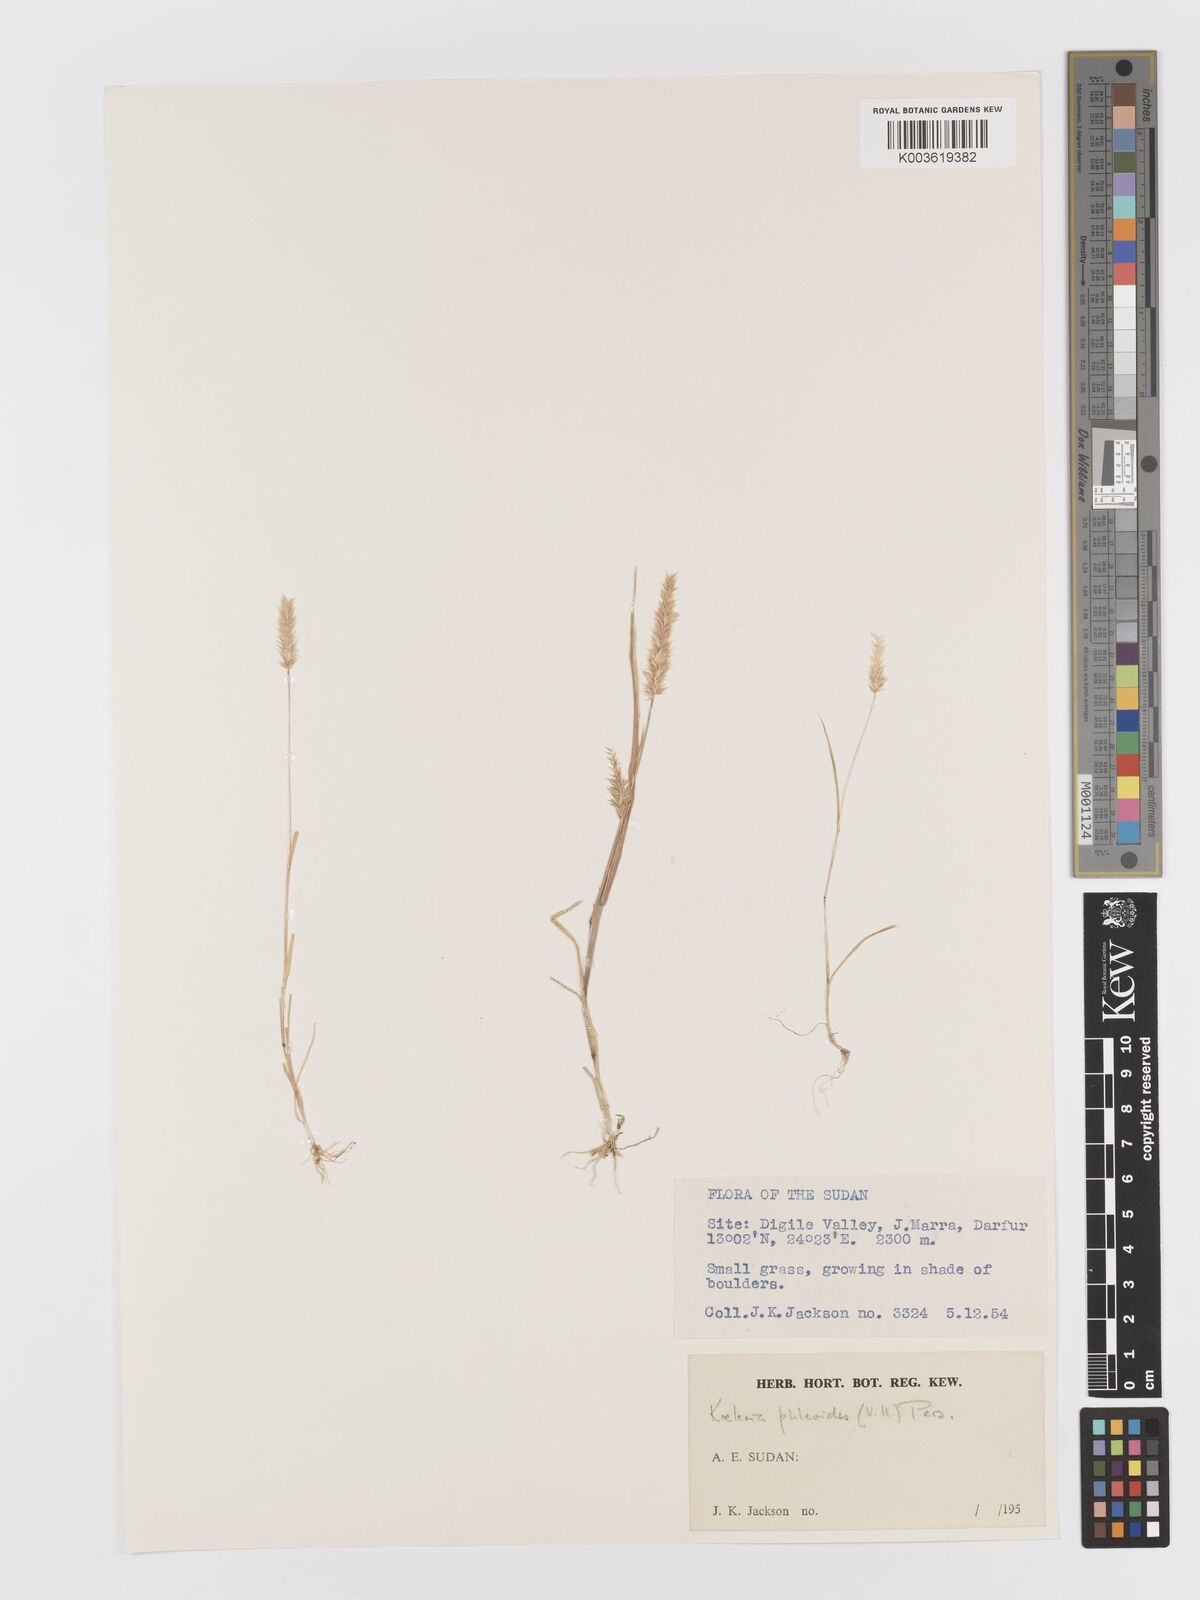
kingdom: Plantae
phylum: Tracheophyta
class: Liliopsida
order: Poales
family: Poaceae
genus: Rostraria
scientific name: Rostraria cristata
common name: Mediterranean hair-grass
